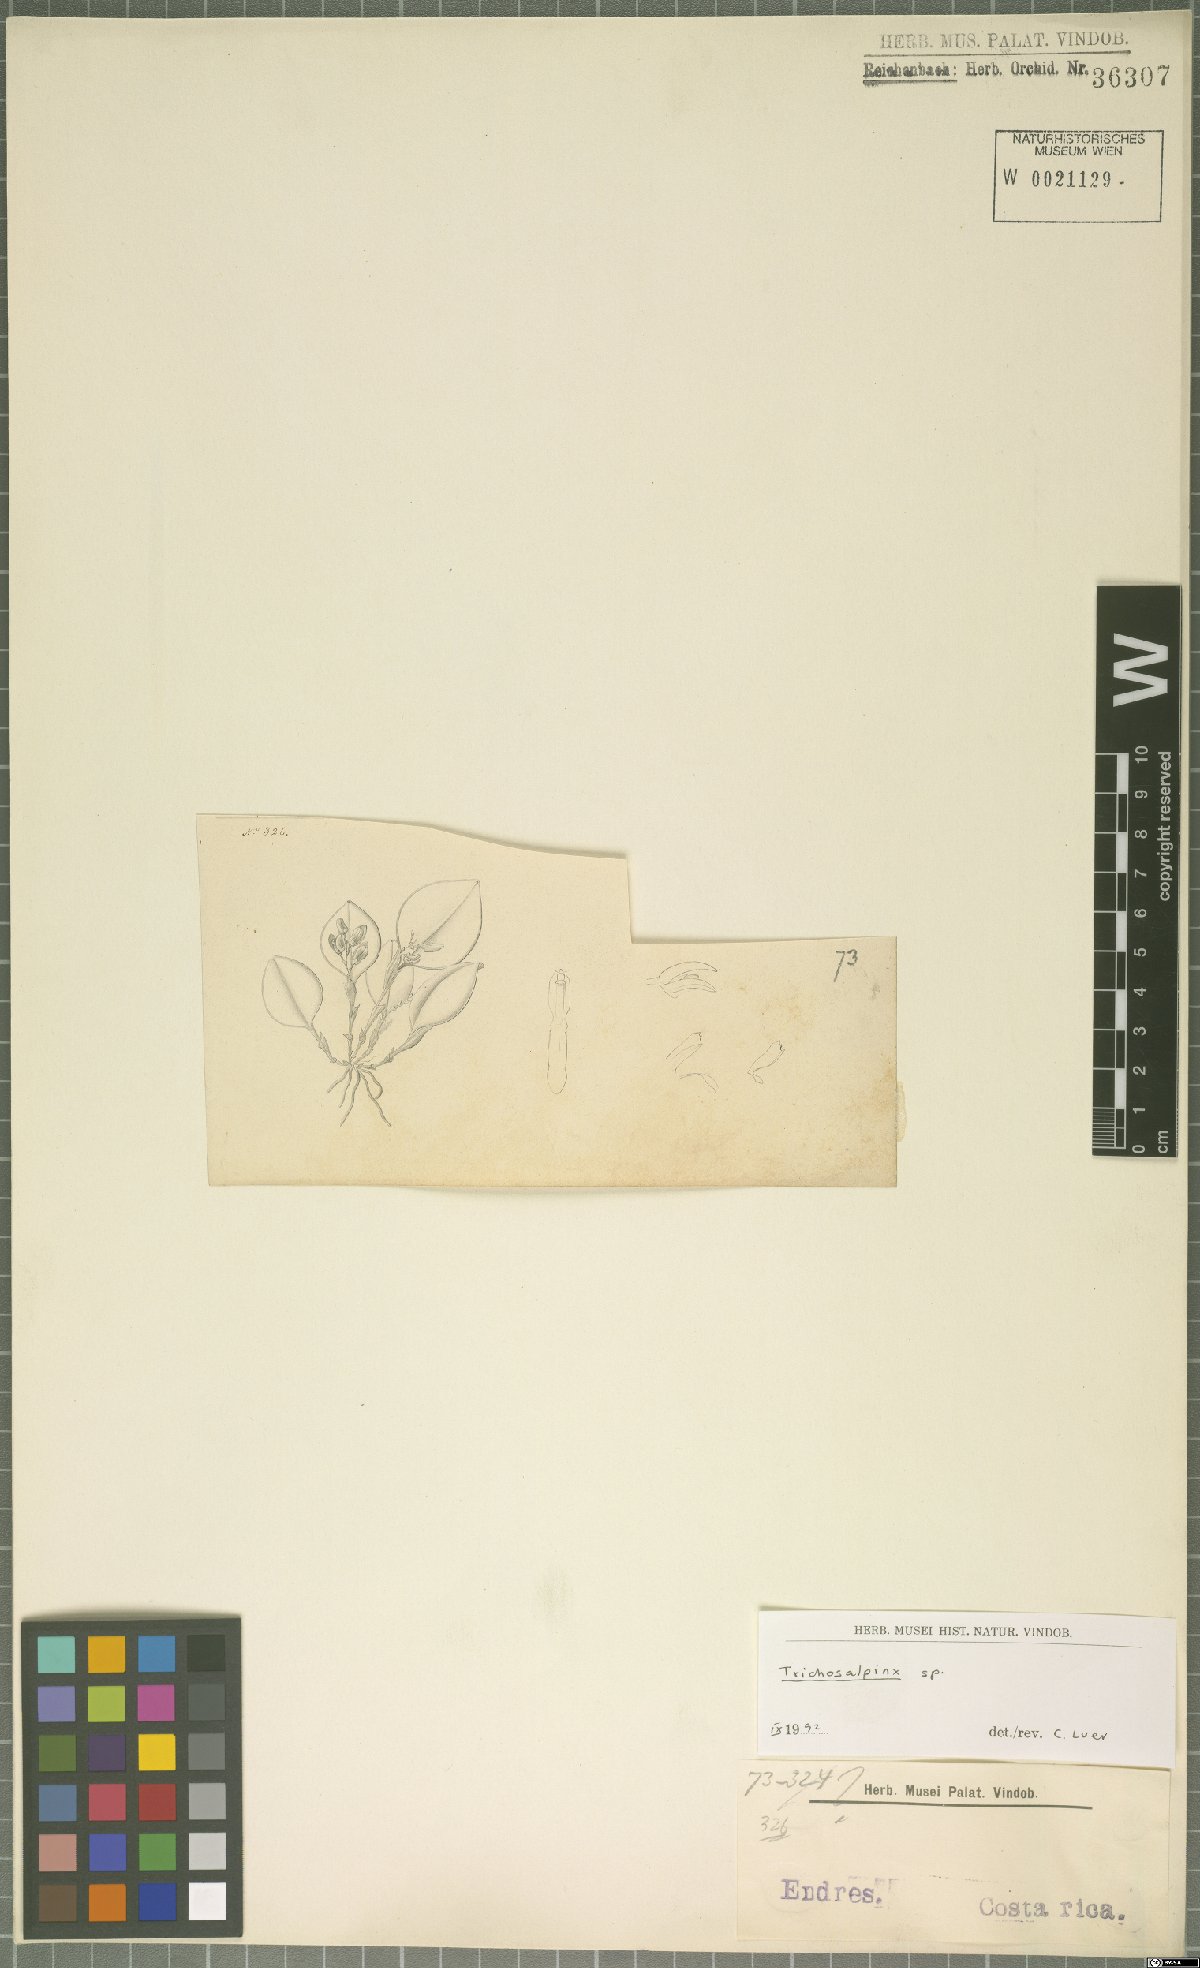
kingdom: Plantae
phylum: Tracheophyta
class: Liliopsida
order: Asparagales
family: Orchidaceae
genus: Trichosalpinx
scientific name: Trichosalpinx
